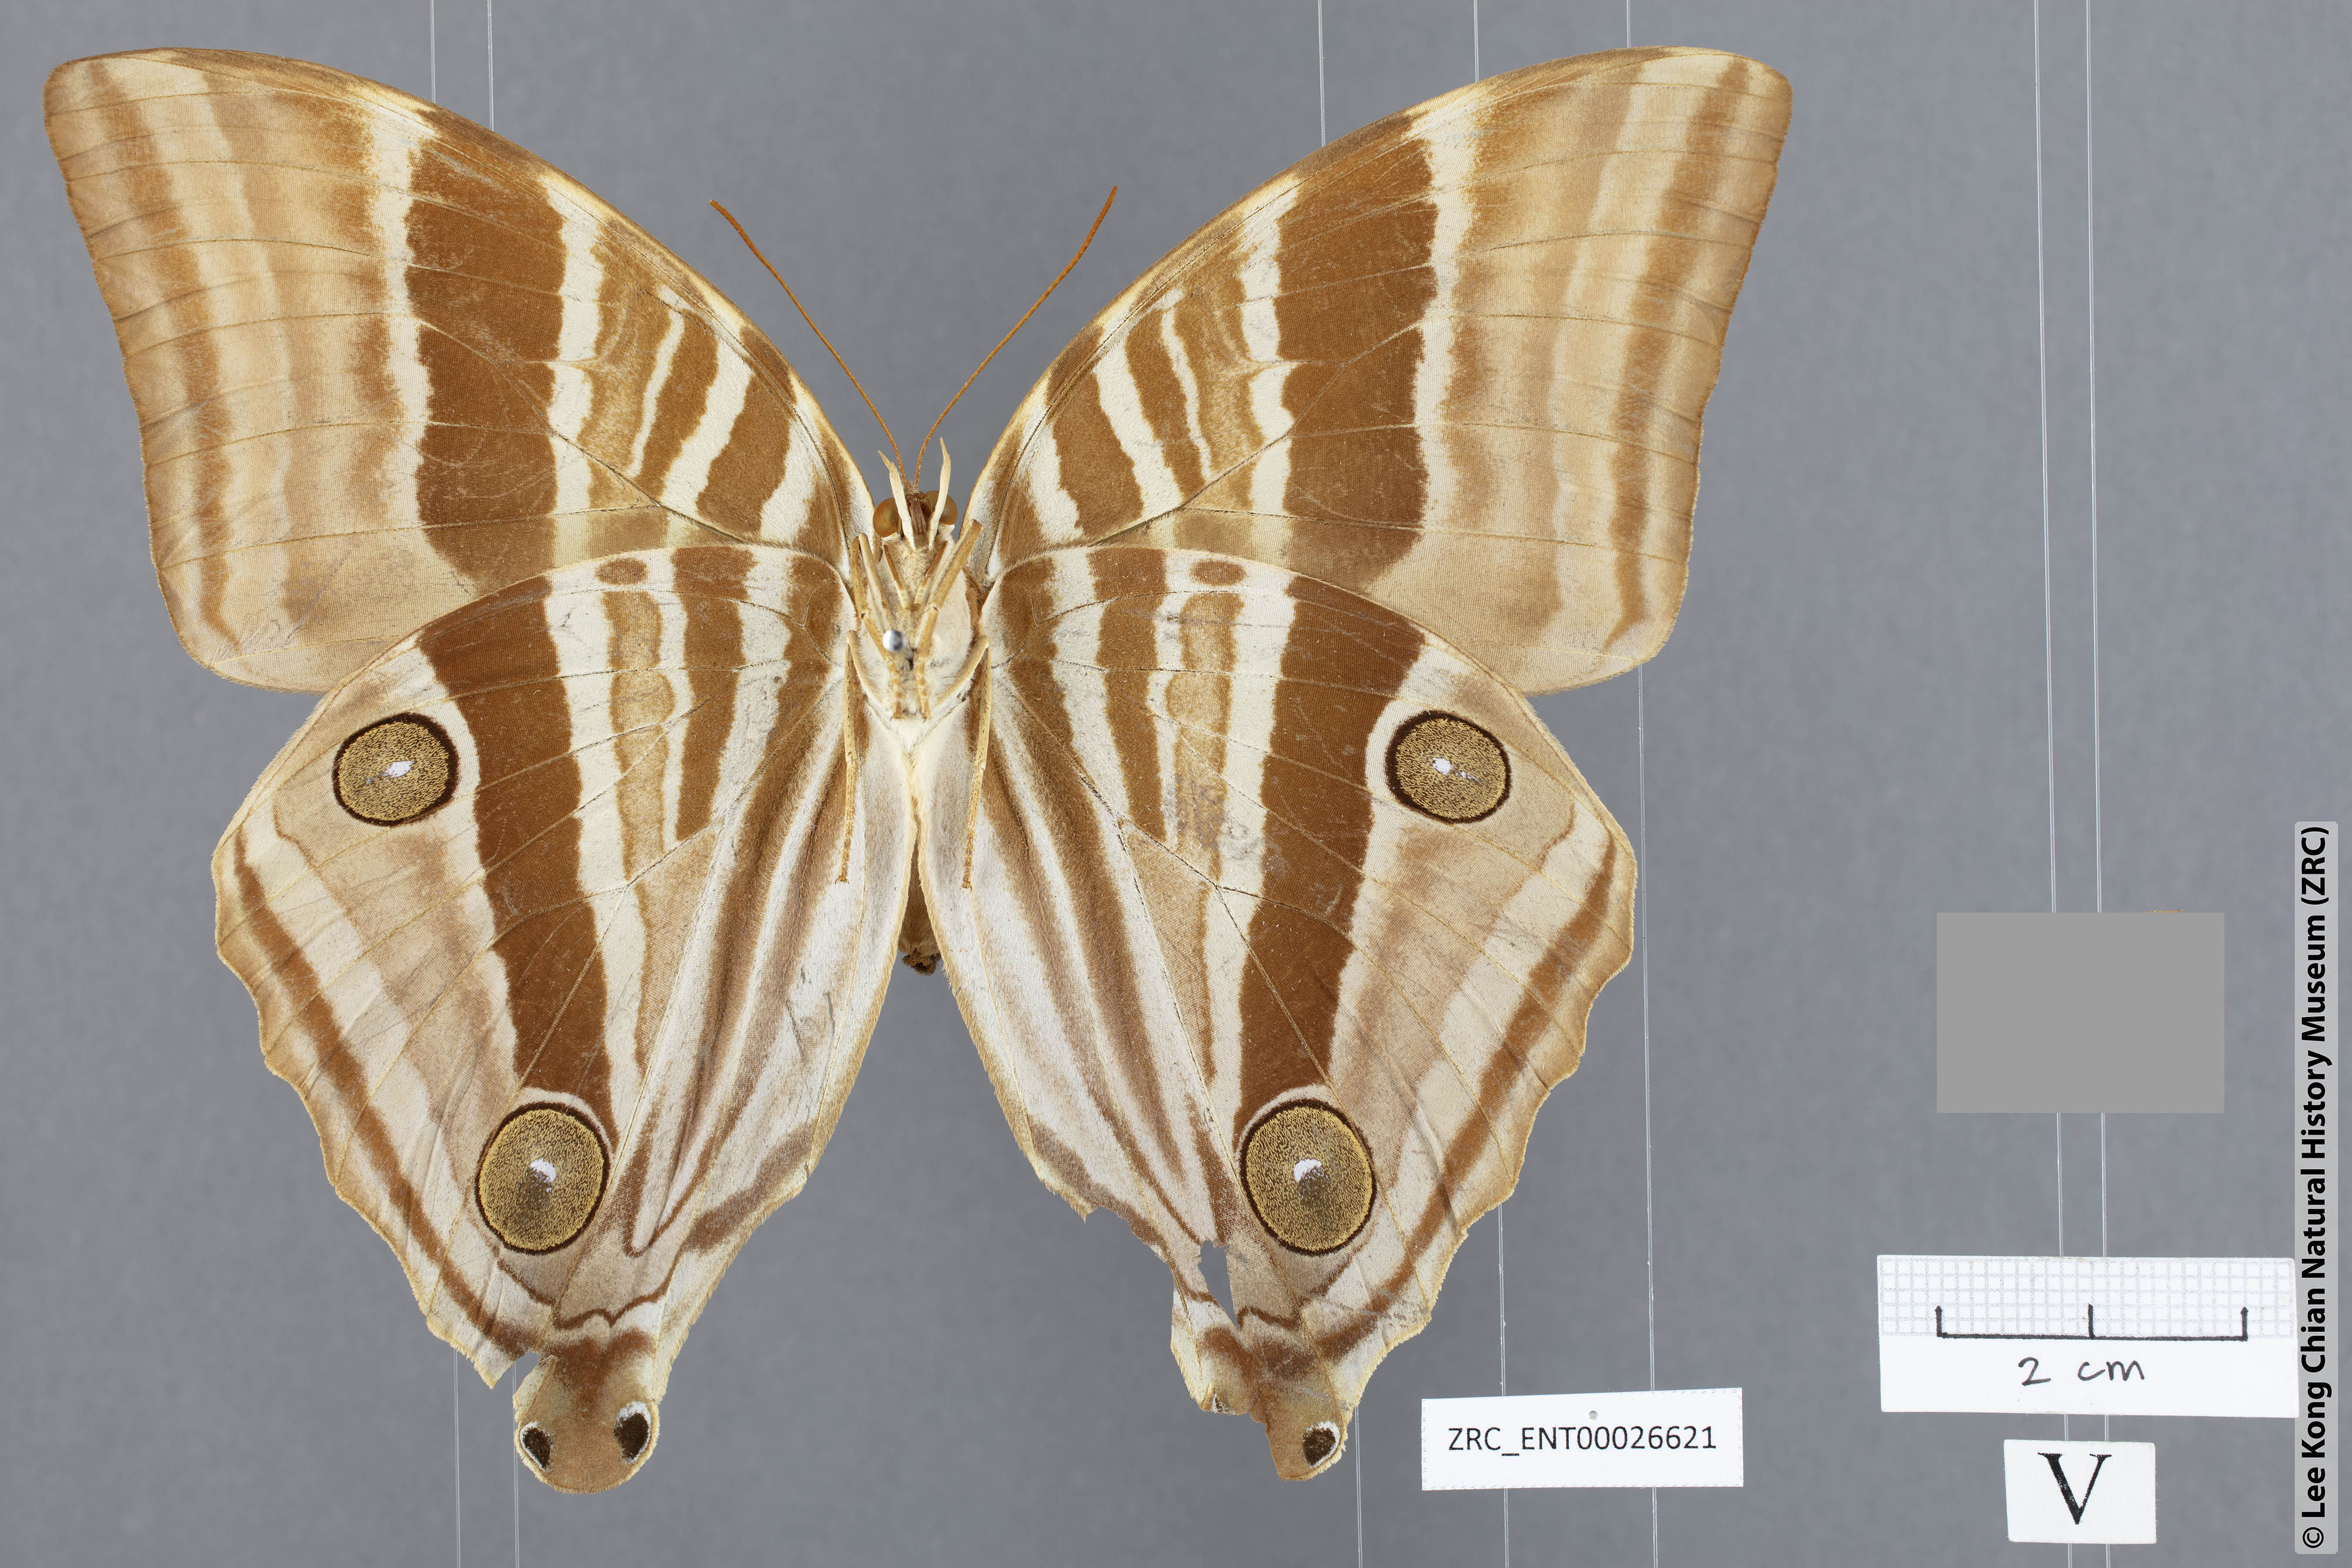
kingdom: Animalia
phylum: Arthropoda
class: Insecta
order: Lepidoptera
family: Nymphalidae
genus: Amathusia
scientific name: Amathusia perakana
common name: Perak palm king
